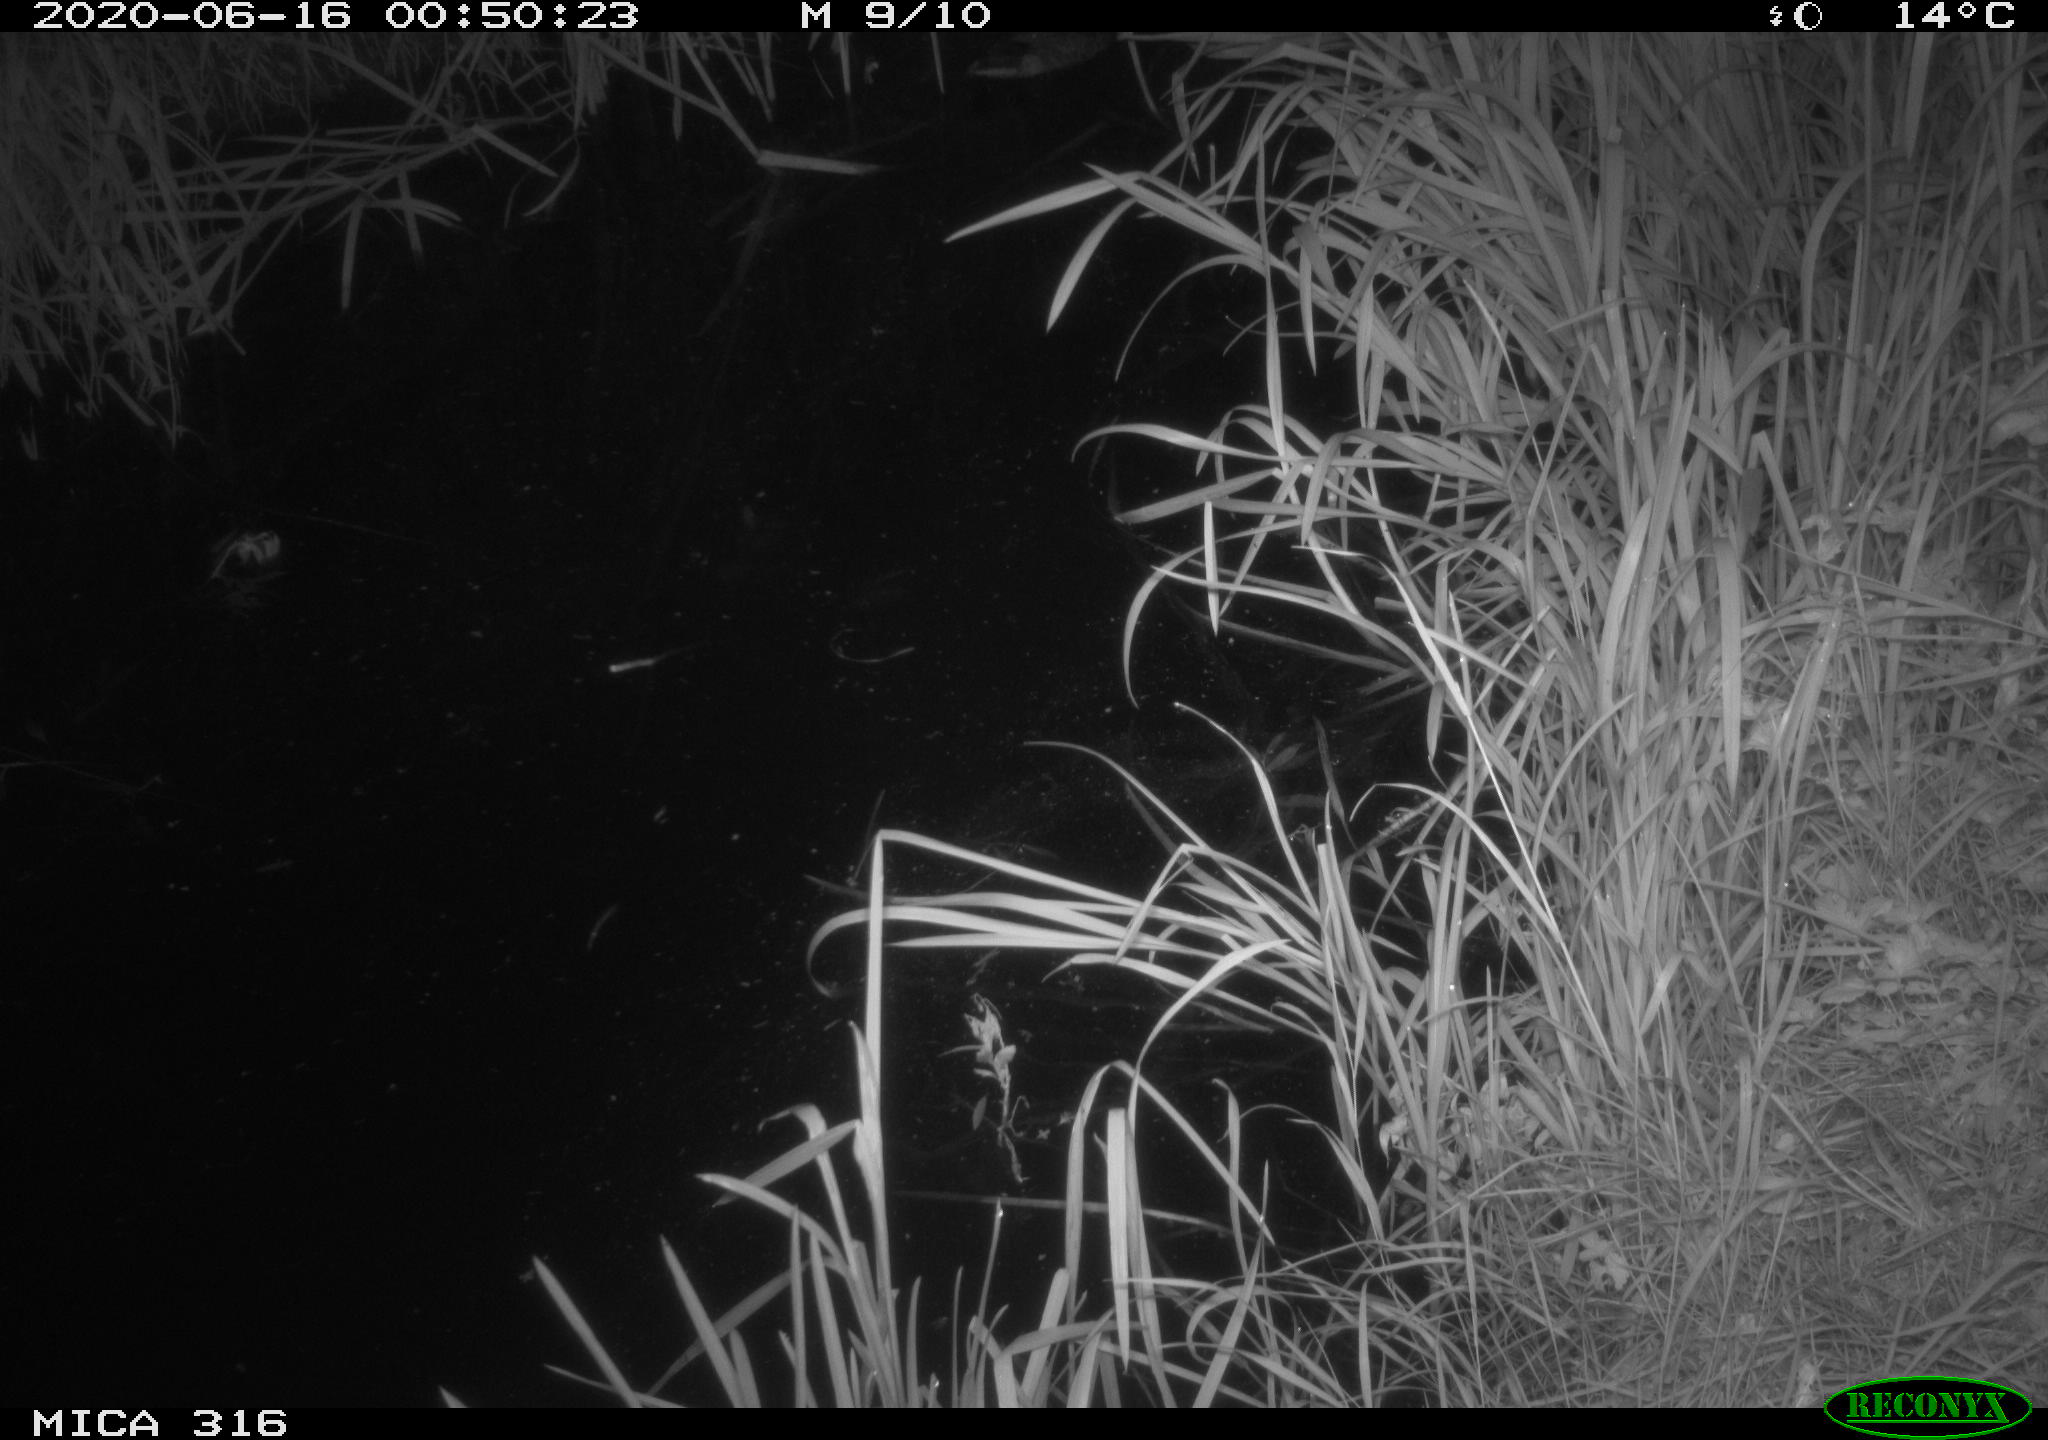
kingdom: Animalia
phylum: Chordata
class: Aves
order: Anseriformes
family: Anatidae
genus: Anas
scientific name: Anas platyrhynchos
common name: Mallard
